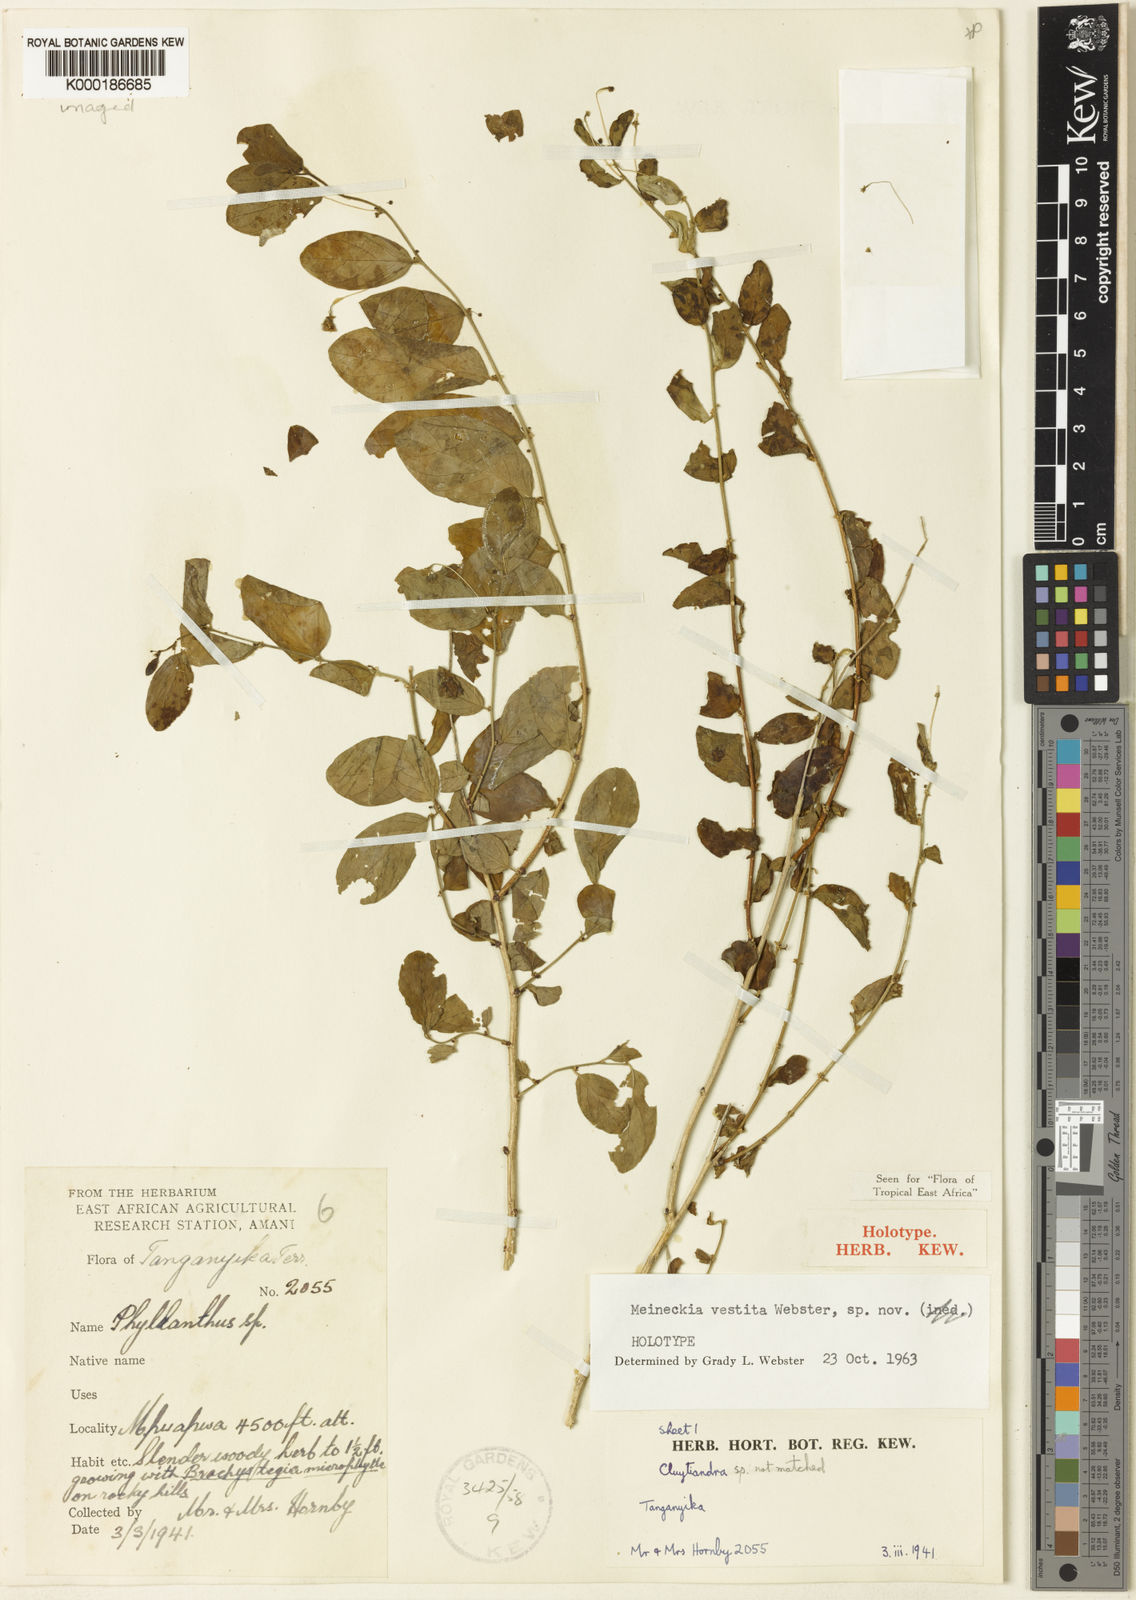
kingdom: Plantae
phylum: Tracheophyta
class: Magnoliopsida
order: Malpighiales
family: Phyllanthaceae
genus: Meineckia
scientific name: Meineckia vestita
